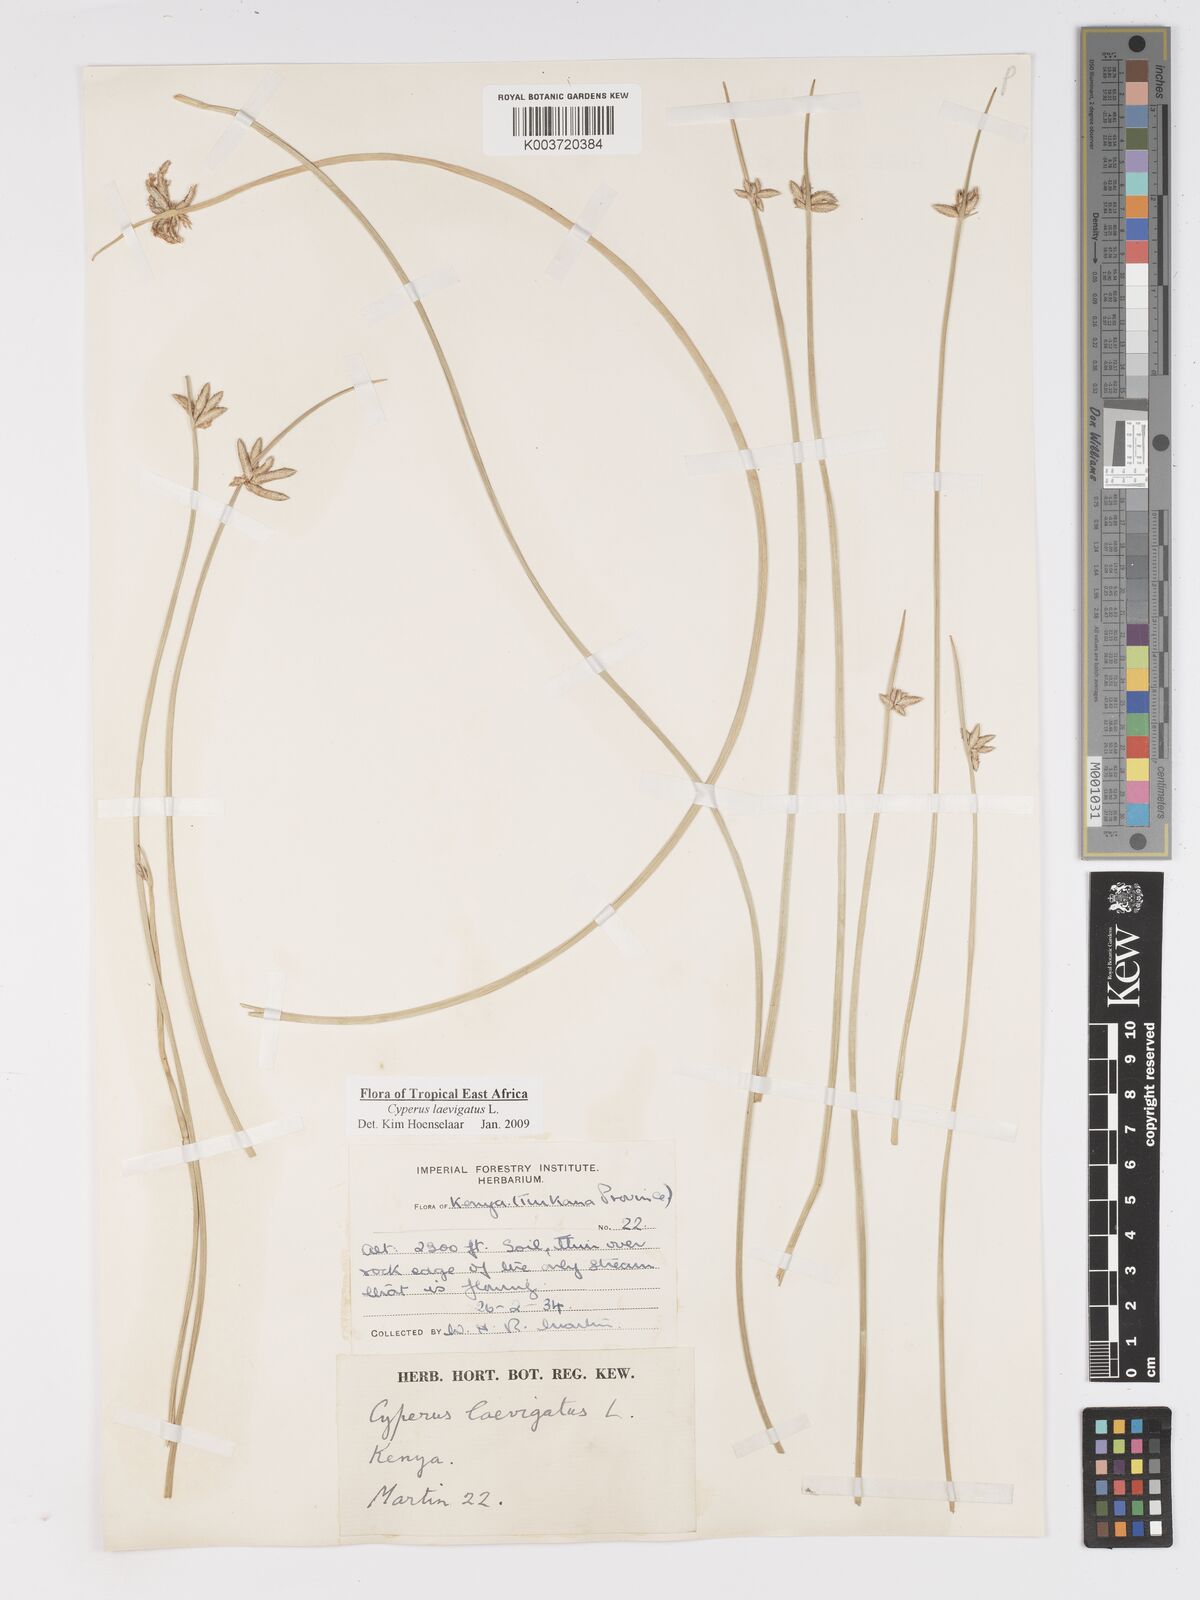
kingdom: Plantae
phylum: Tracheophyta
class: Liliopsida
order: Poales
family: Cyperaceae
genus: Cyperus
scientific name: Cyperus laevigatus
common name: Smooth flat sedge
